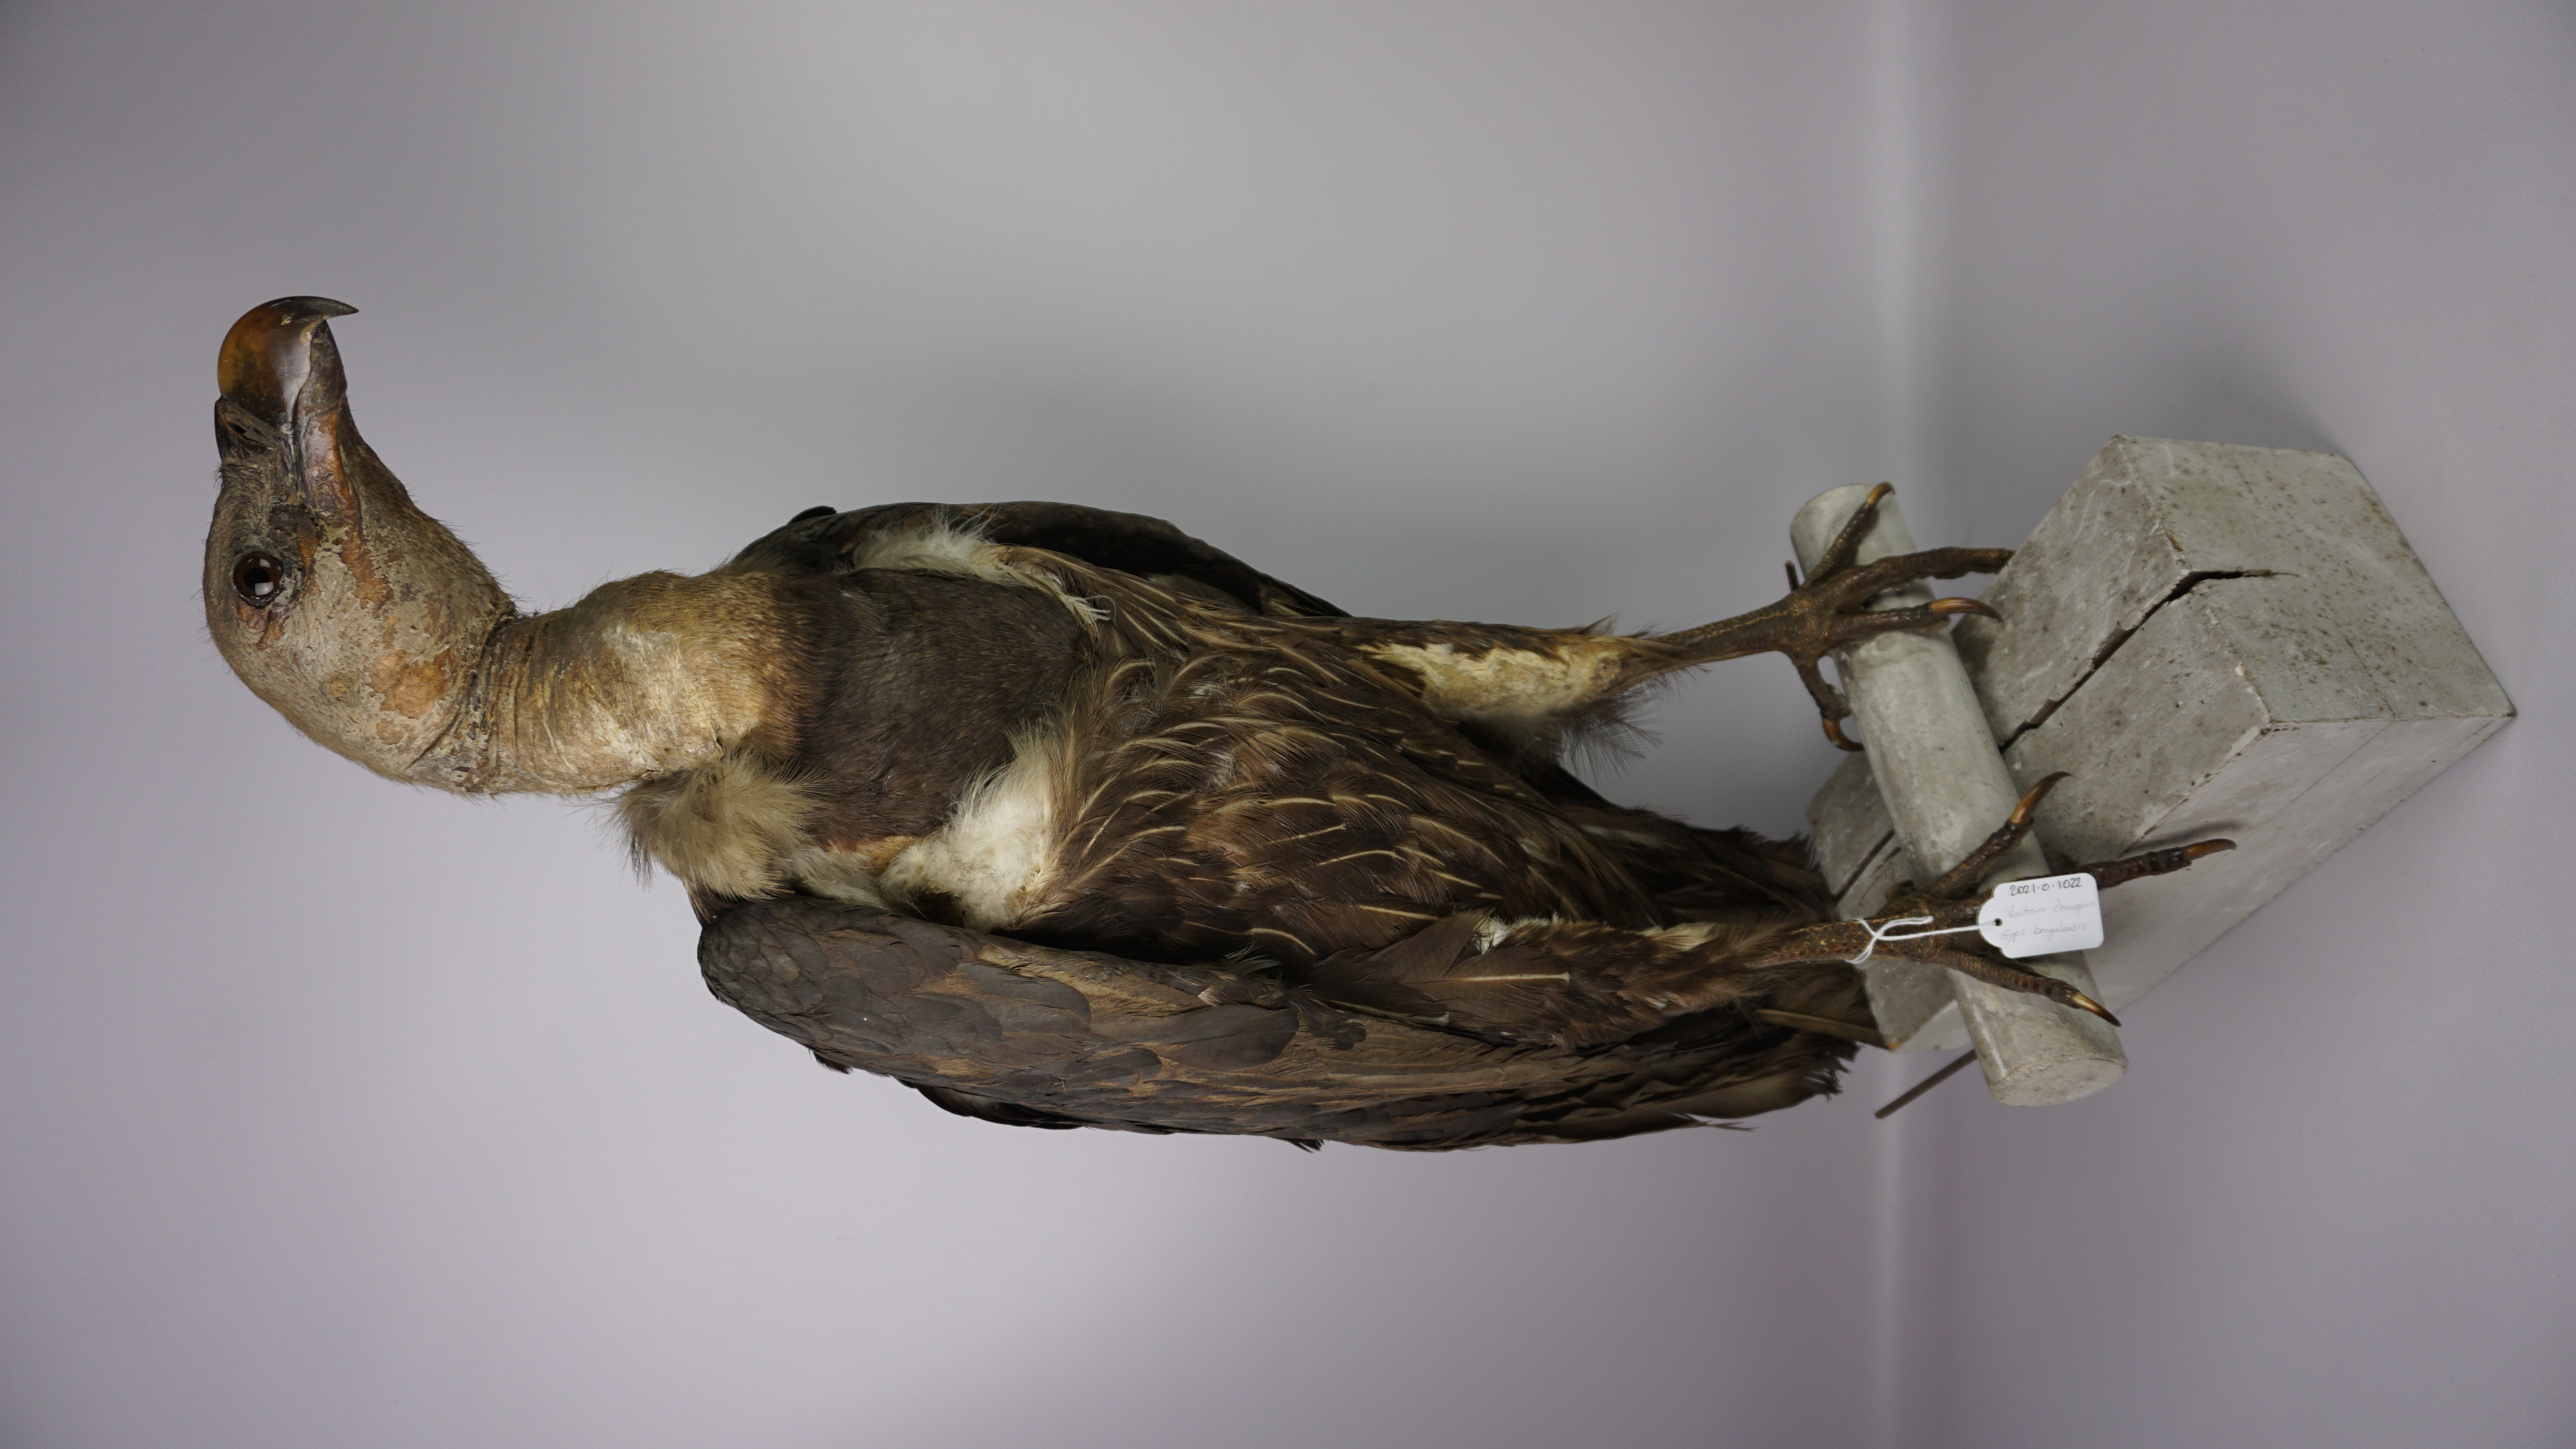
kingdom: Animalia
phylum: Chordata
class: Aves
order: Accipitriformes
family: Accipitridae
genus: Gyps
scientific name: Gyps bengalensis
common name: White-rumped vulture
